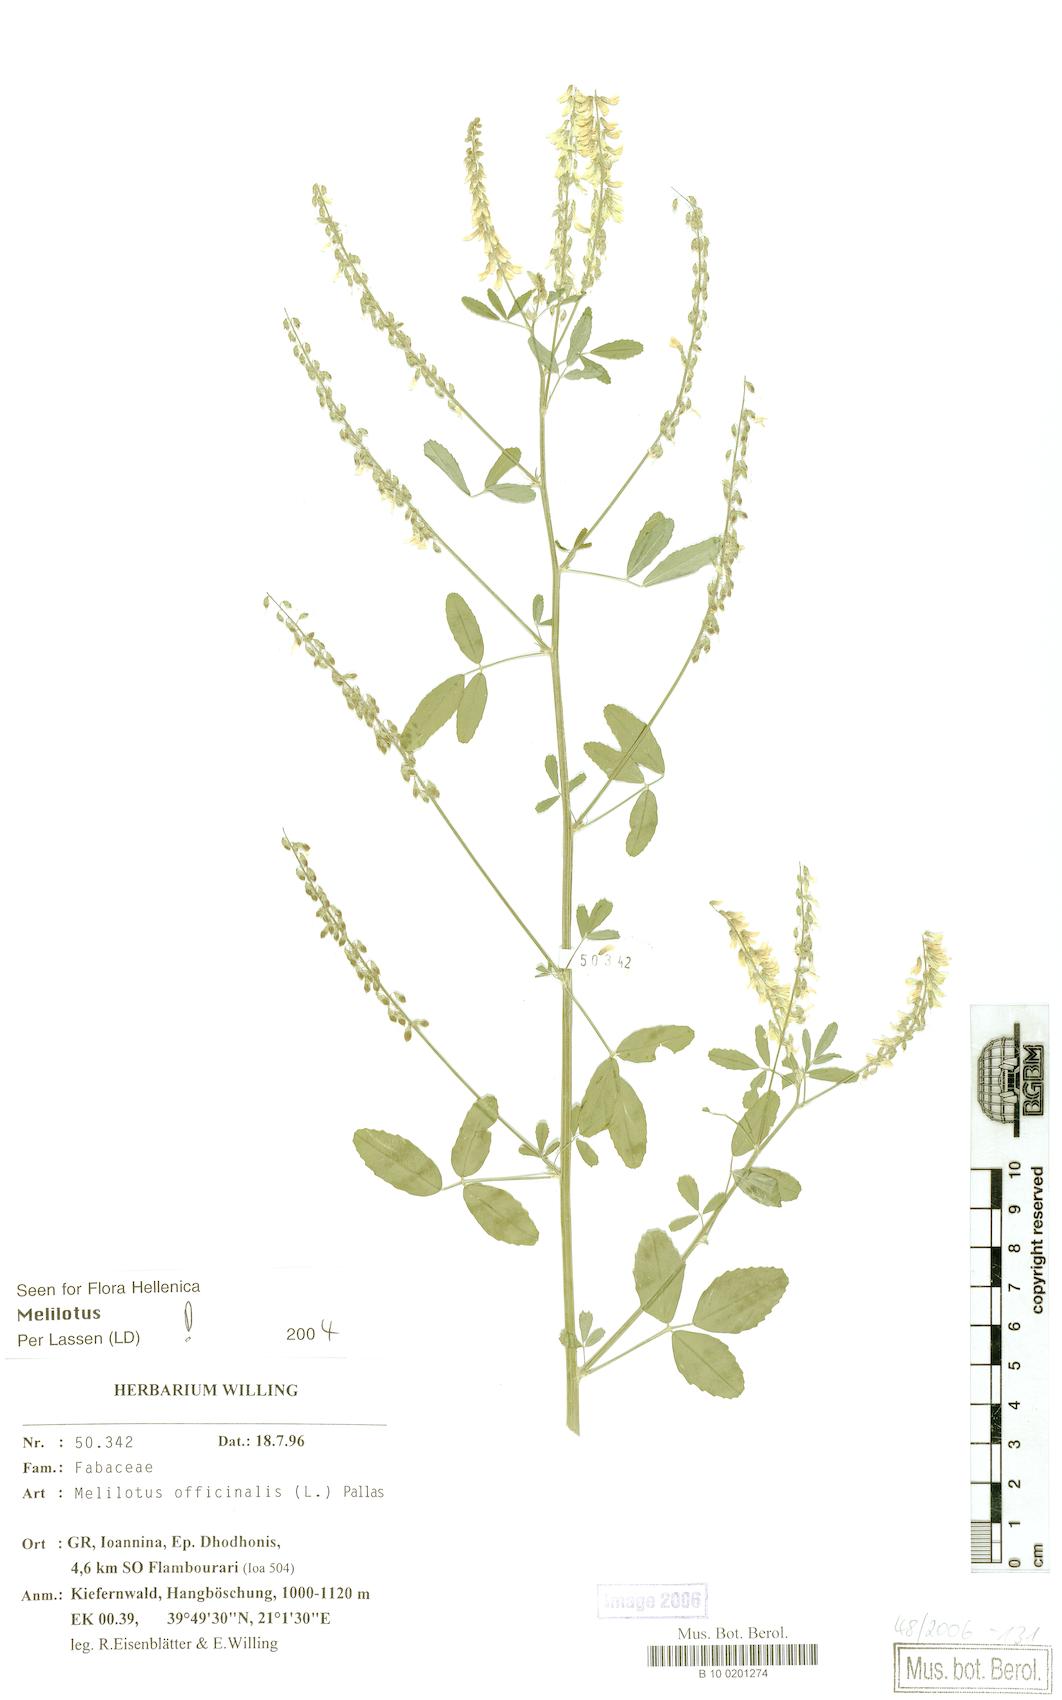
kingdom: Plantae
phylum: Tracheophyta
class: Magnoliopsida
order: Fabales
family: Fabaceae
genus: Melilotus
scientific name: Melilotus officinalis
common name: Sweetclover
